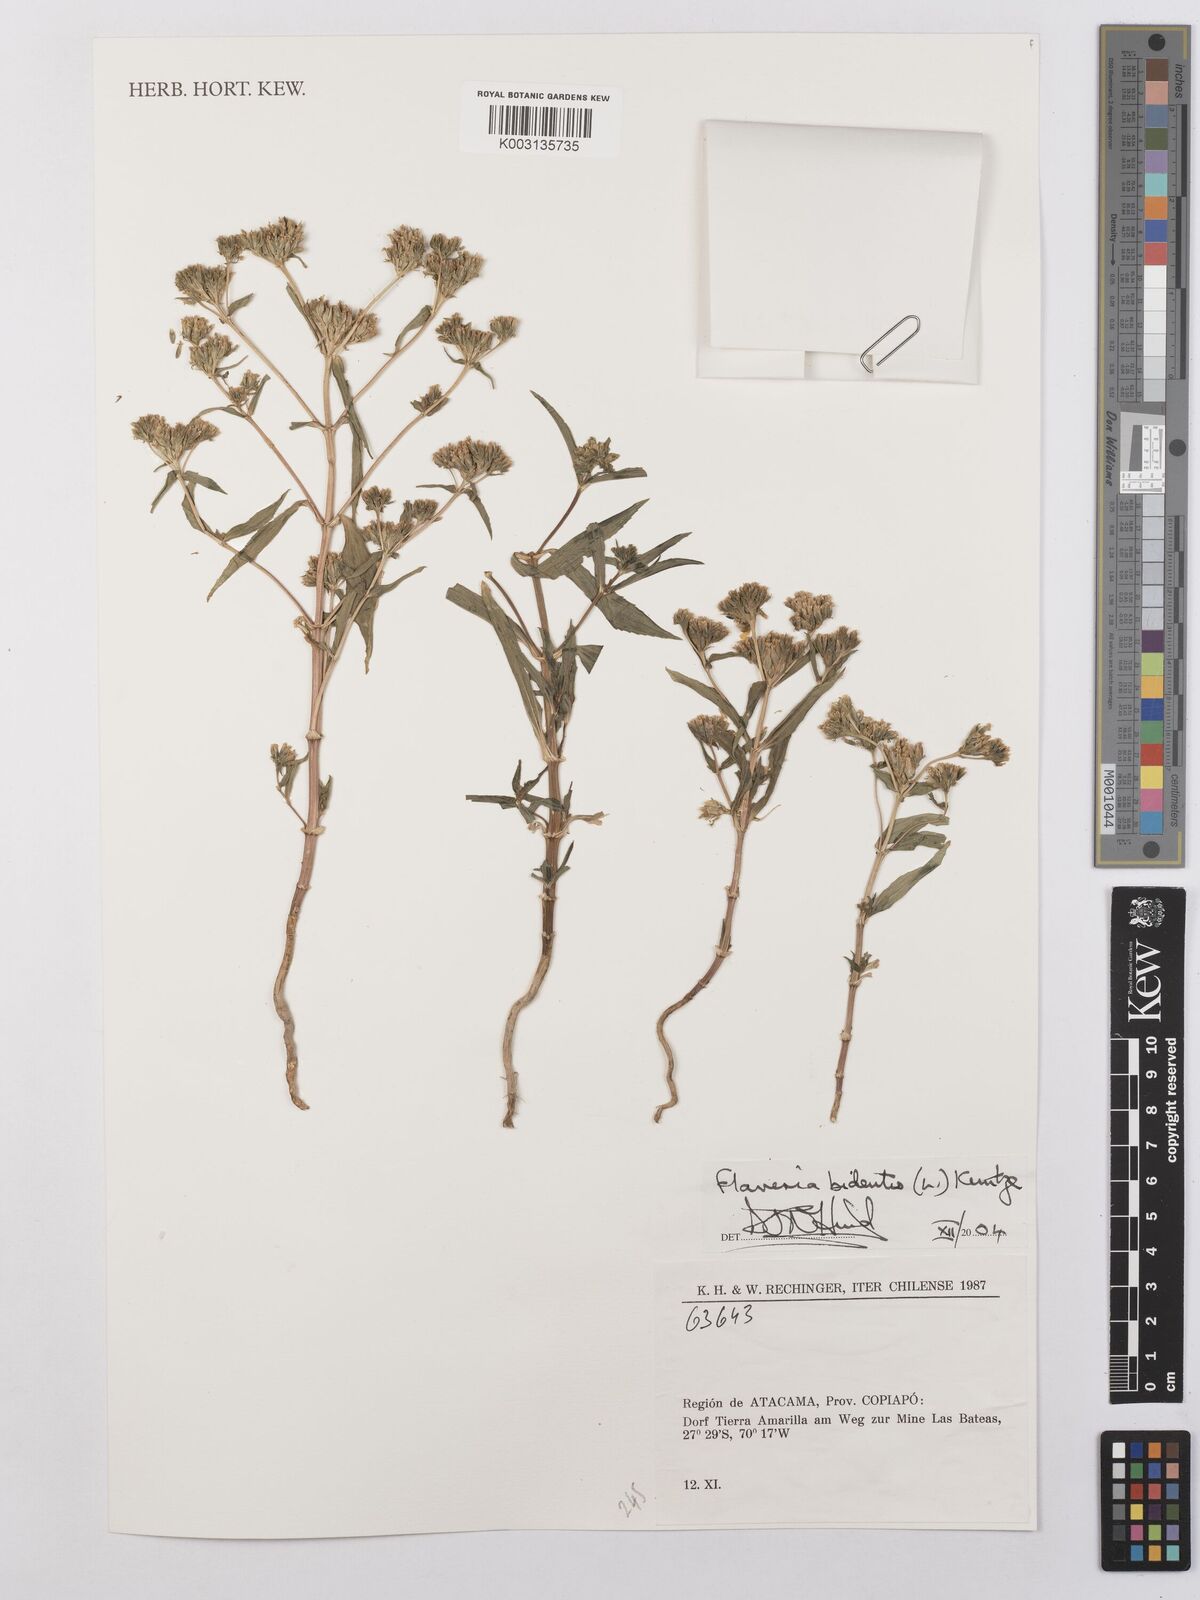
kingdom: Plantae
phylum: Tracheophyta
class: Magnoliopsida
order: Asterales
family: Asteraceae
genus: Flaveria
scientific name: Flaveria bidentis
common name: Coastal plain yellowtops
